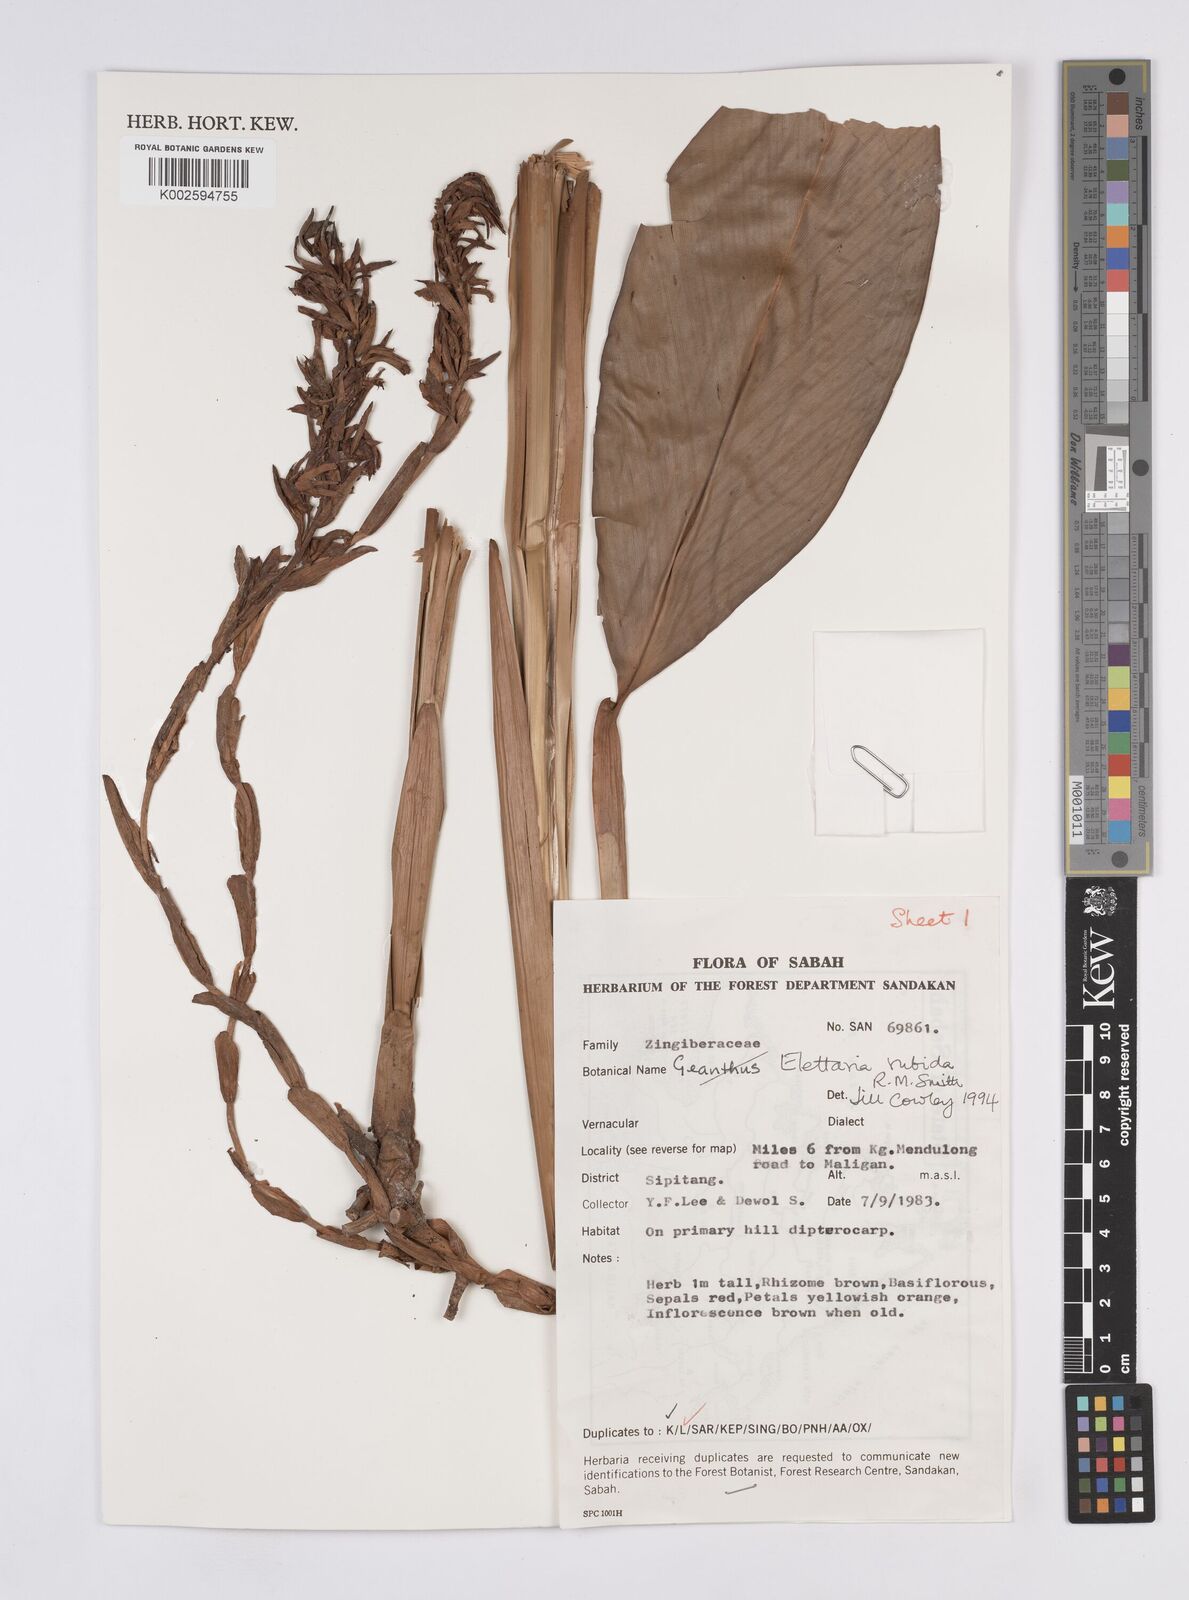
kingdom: Plantae
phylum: Tracheophyta
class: Liliopsida
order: Zingiberales
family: Zingiberaceae
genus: Sulettaria
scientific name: Sulettaria rubida
